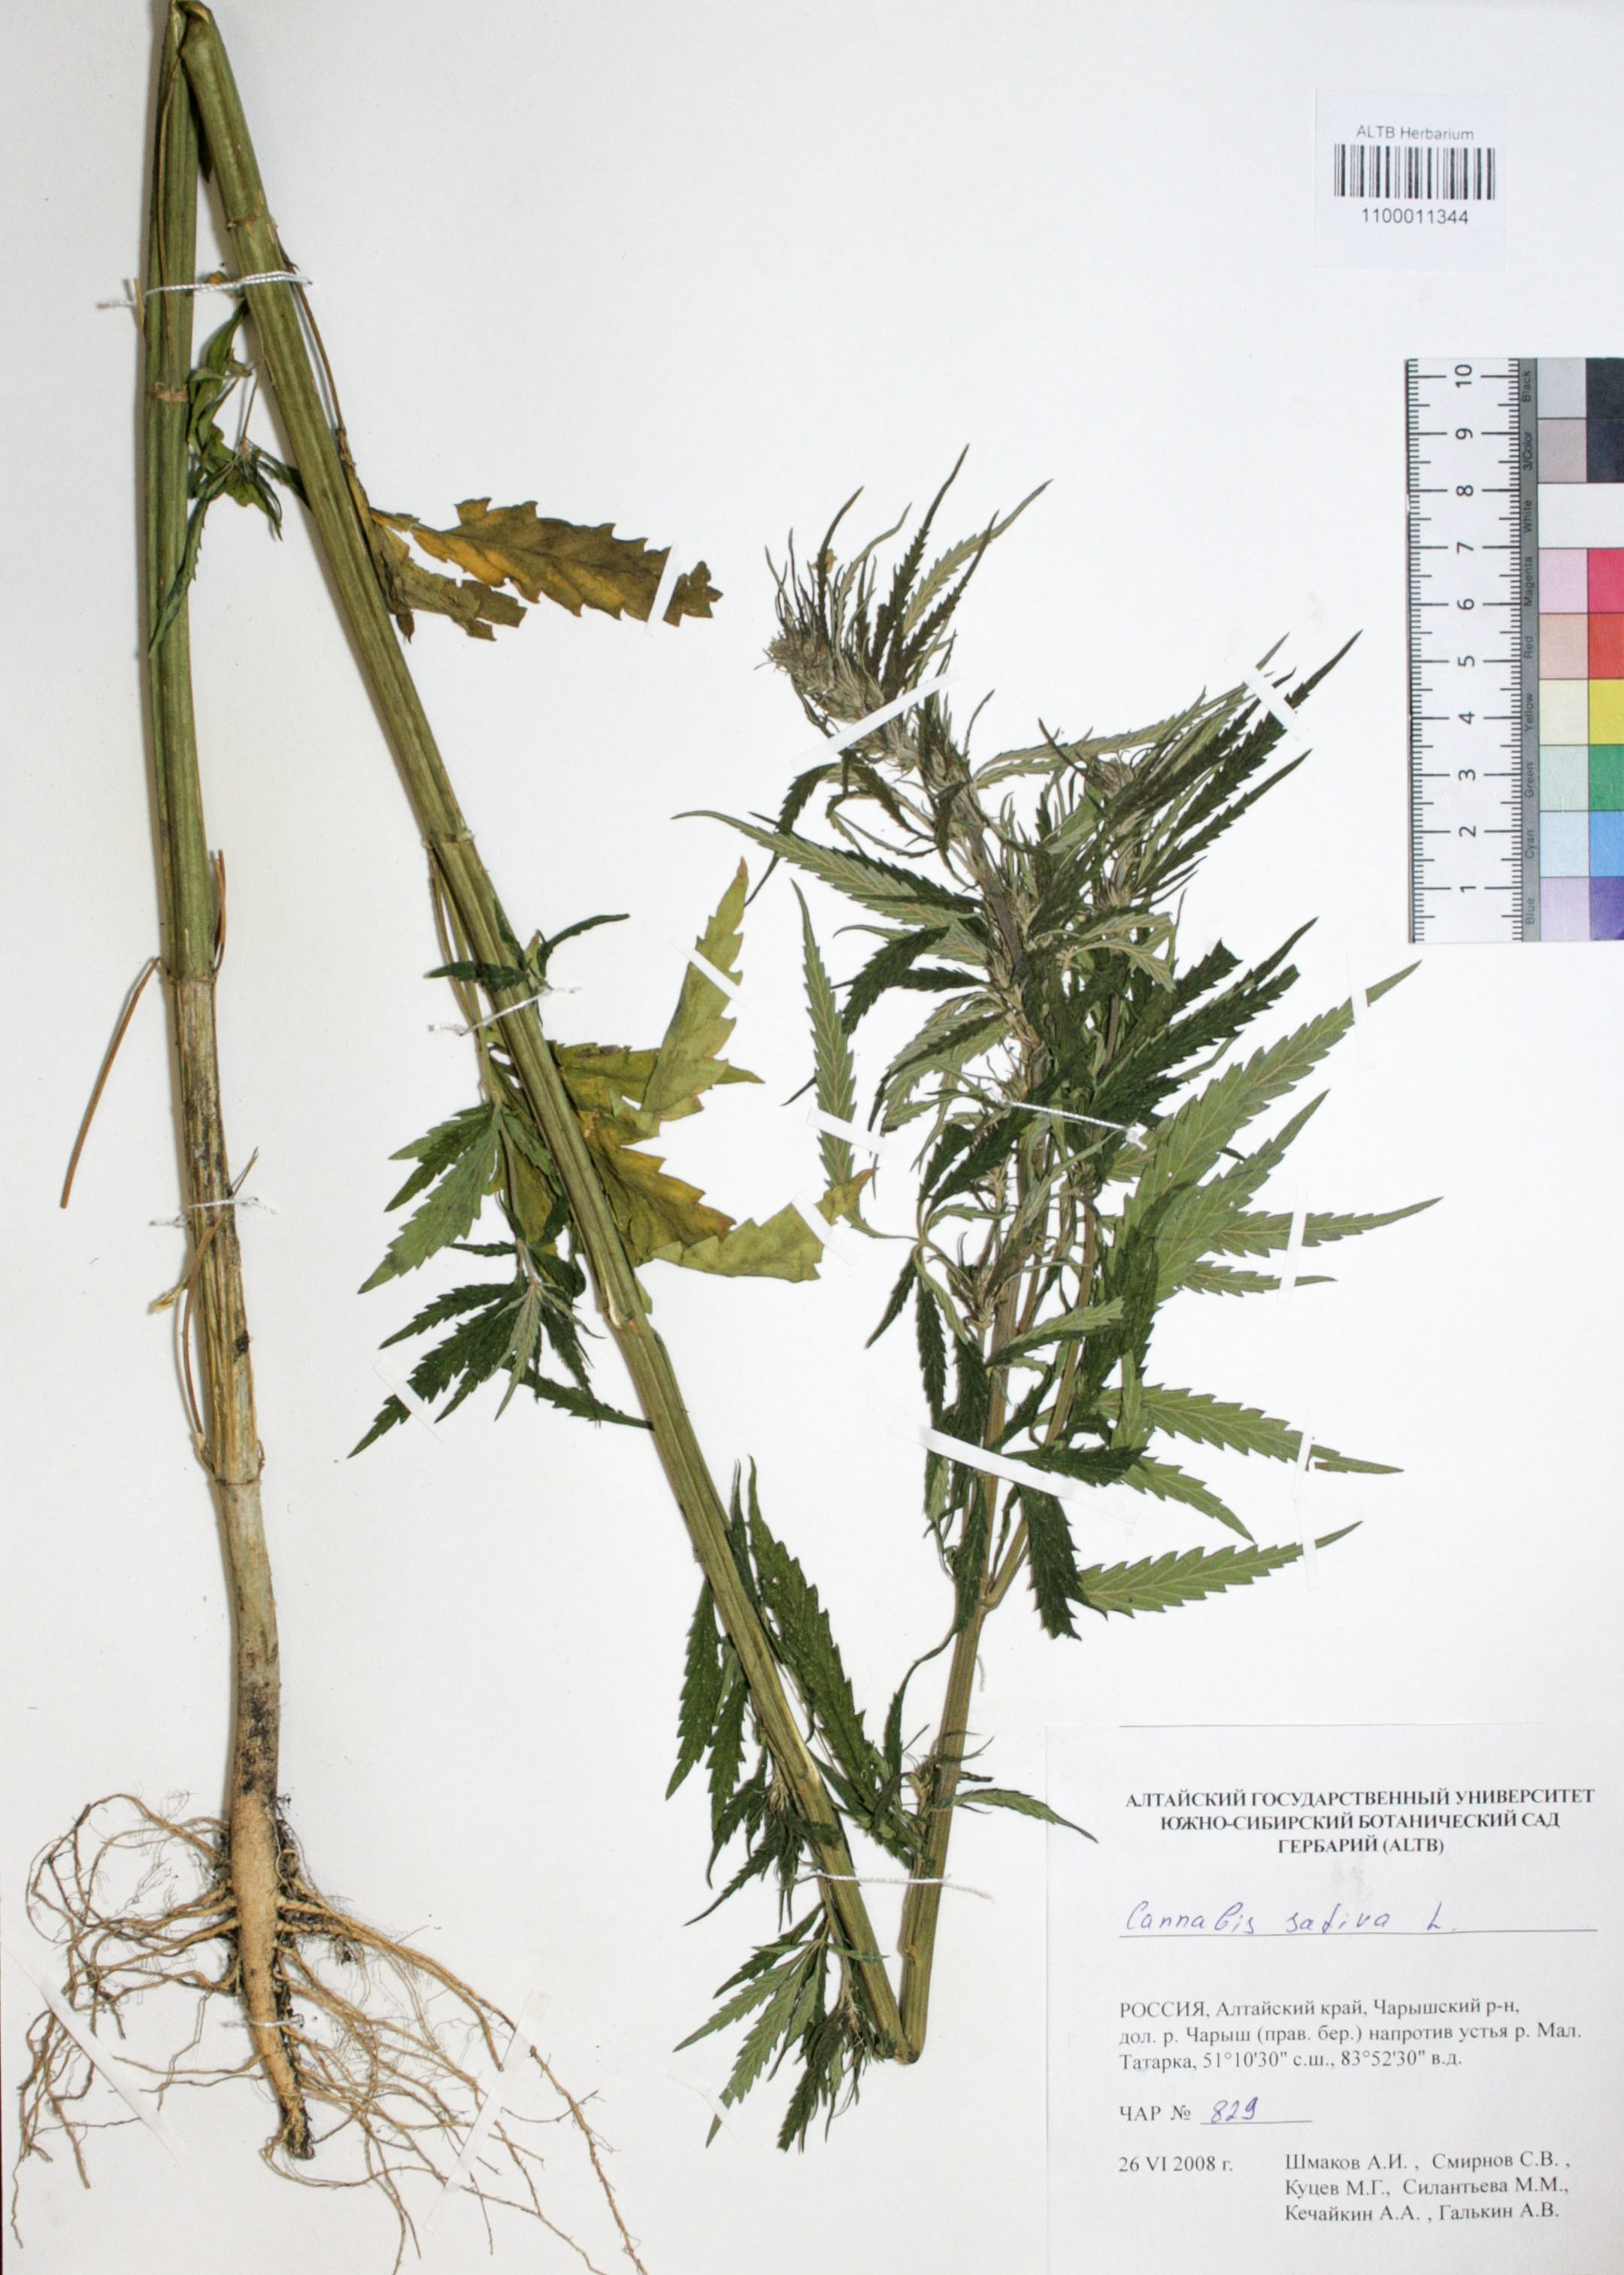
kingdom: Plantae
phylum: Tracheophyta
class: Magnoliopsida
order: Rosales
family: Cannabaceae
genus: Cannabis
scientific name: Cannabis sativa
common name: Hemp
